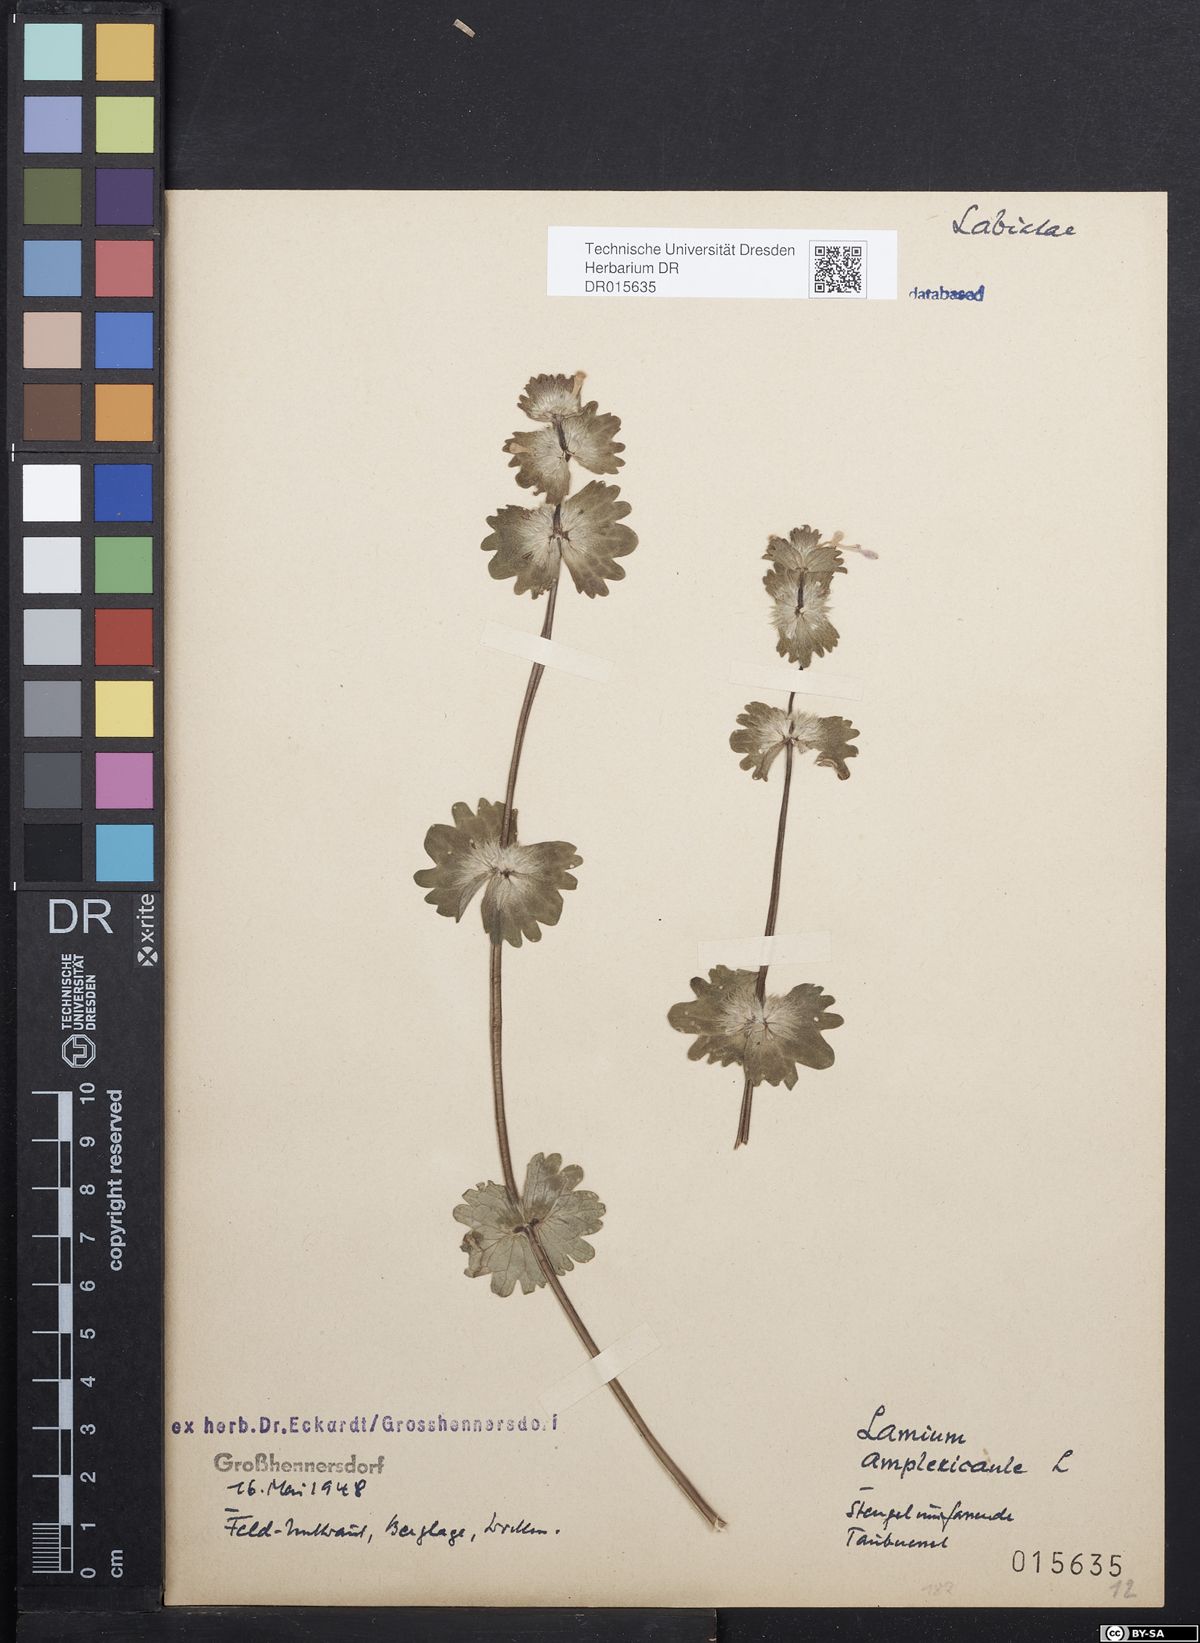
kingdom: Plantae
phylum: Tracheophyta
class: Magnoliopsida
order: Lamiales
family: Lamiaceae
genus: Lamium
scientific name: Lamium amplexicaule
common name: Henbit dead-nettle
